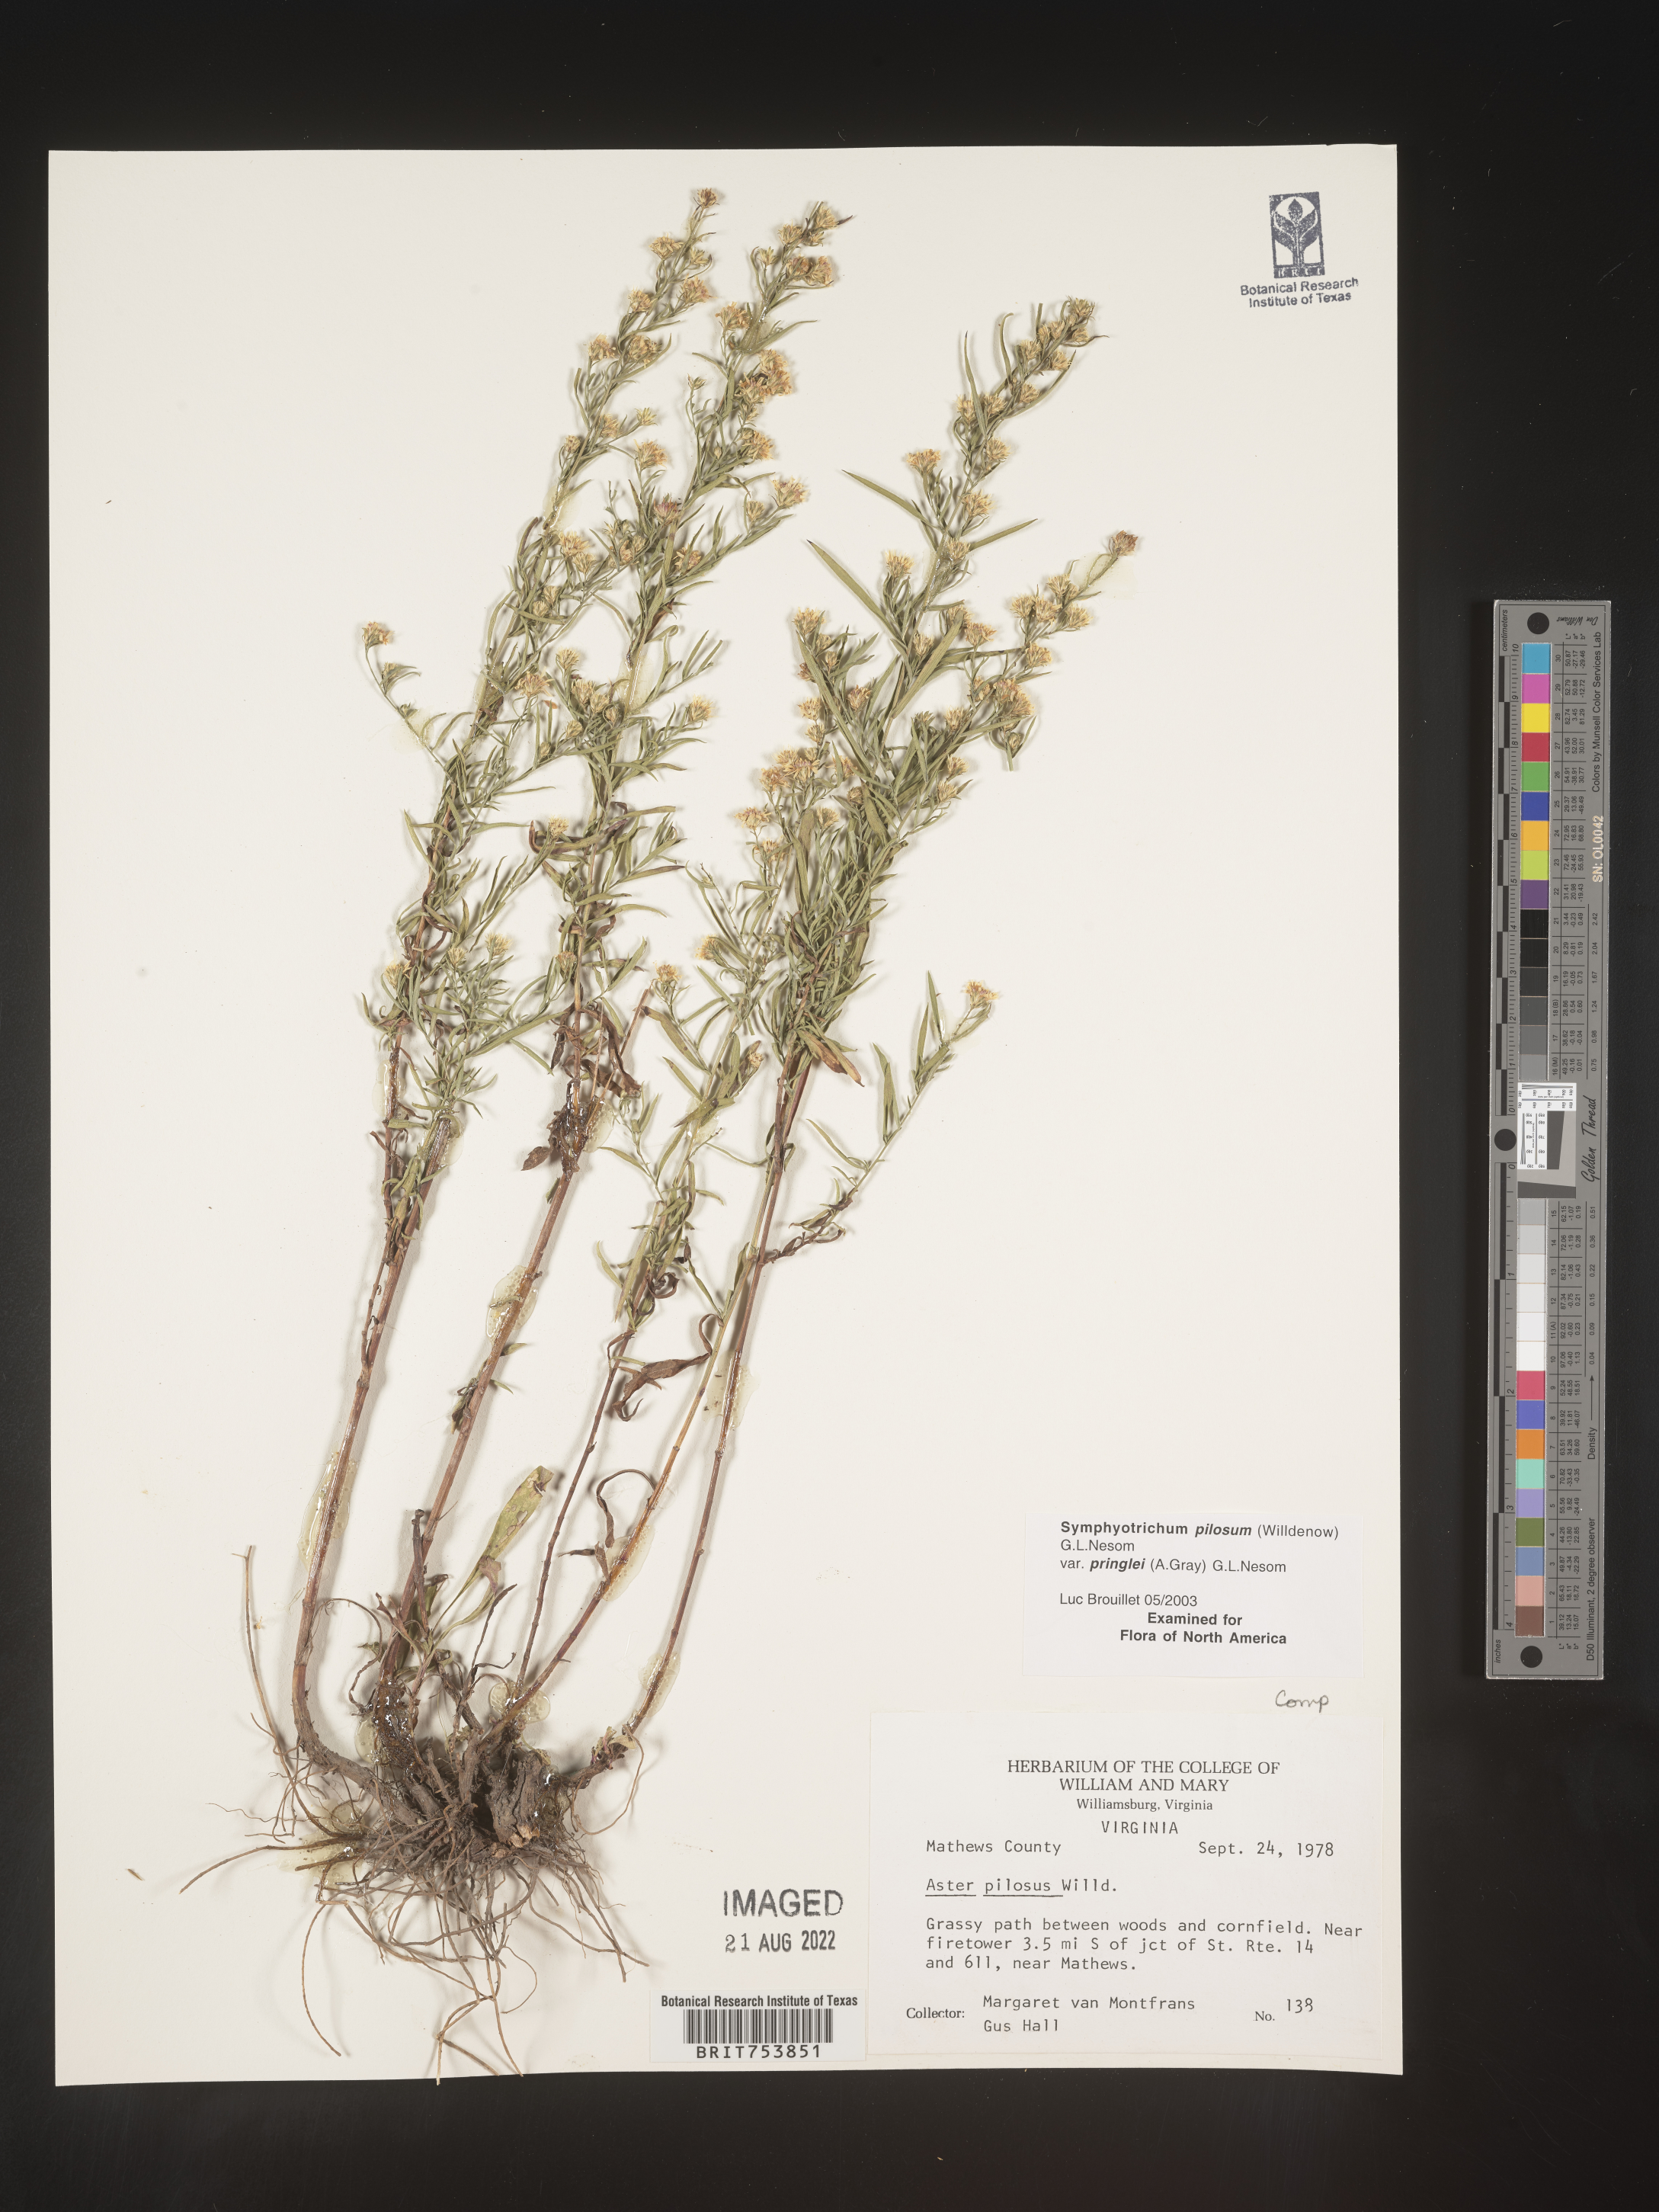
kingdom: Plantae
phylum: Tracheophyta
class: Magnoliopsida
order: Asterales
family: Asteraceae
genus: Symphyotrichum
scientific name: Symphyotrichum pilosum
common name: Awl aster
